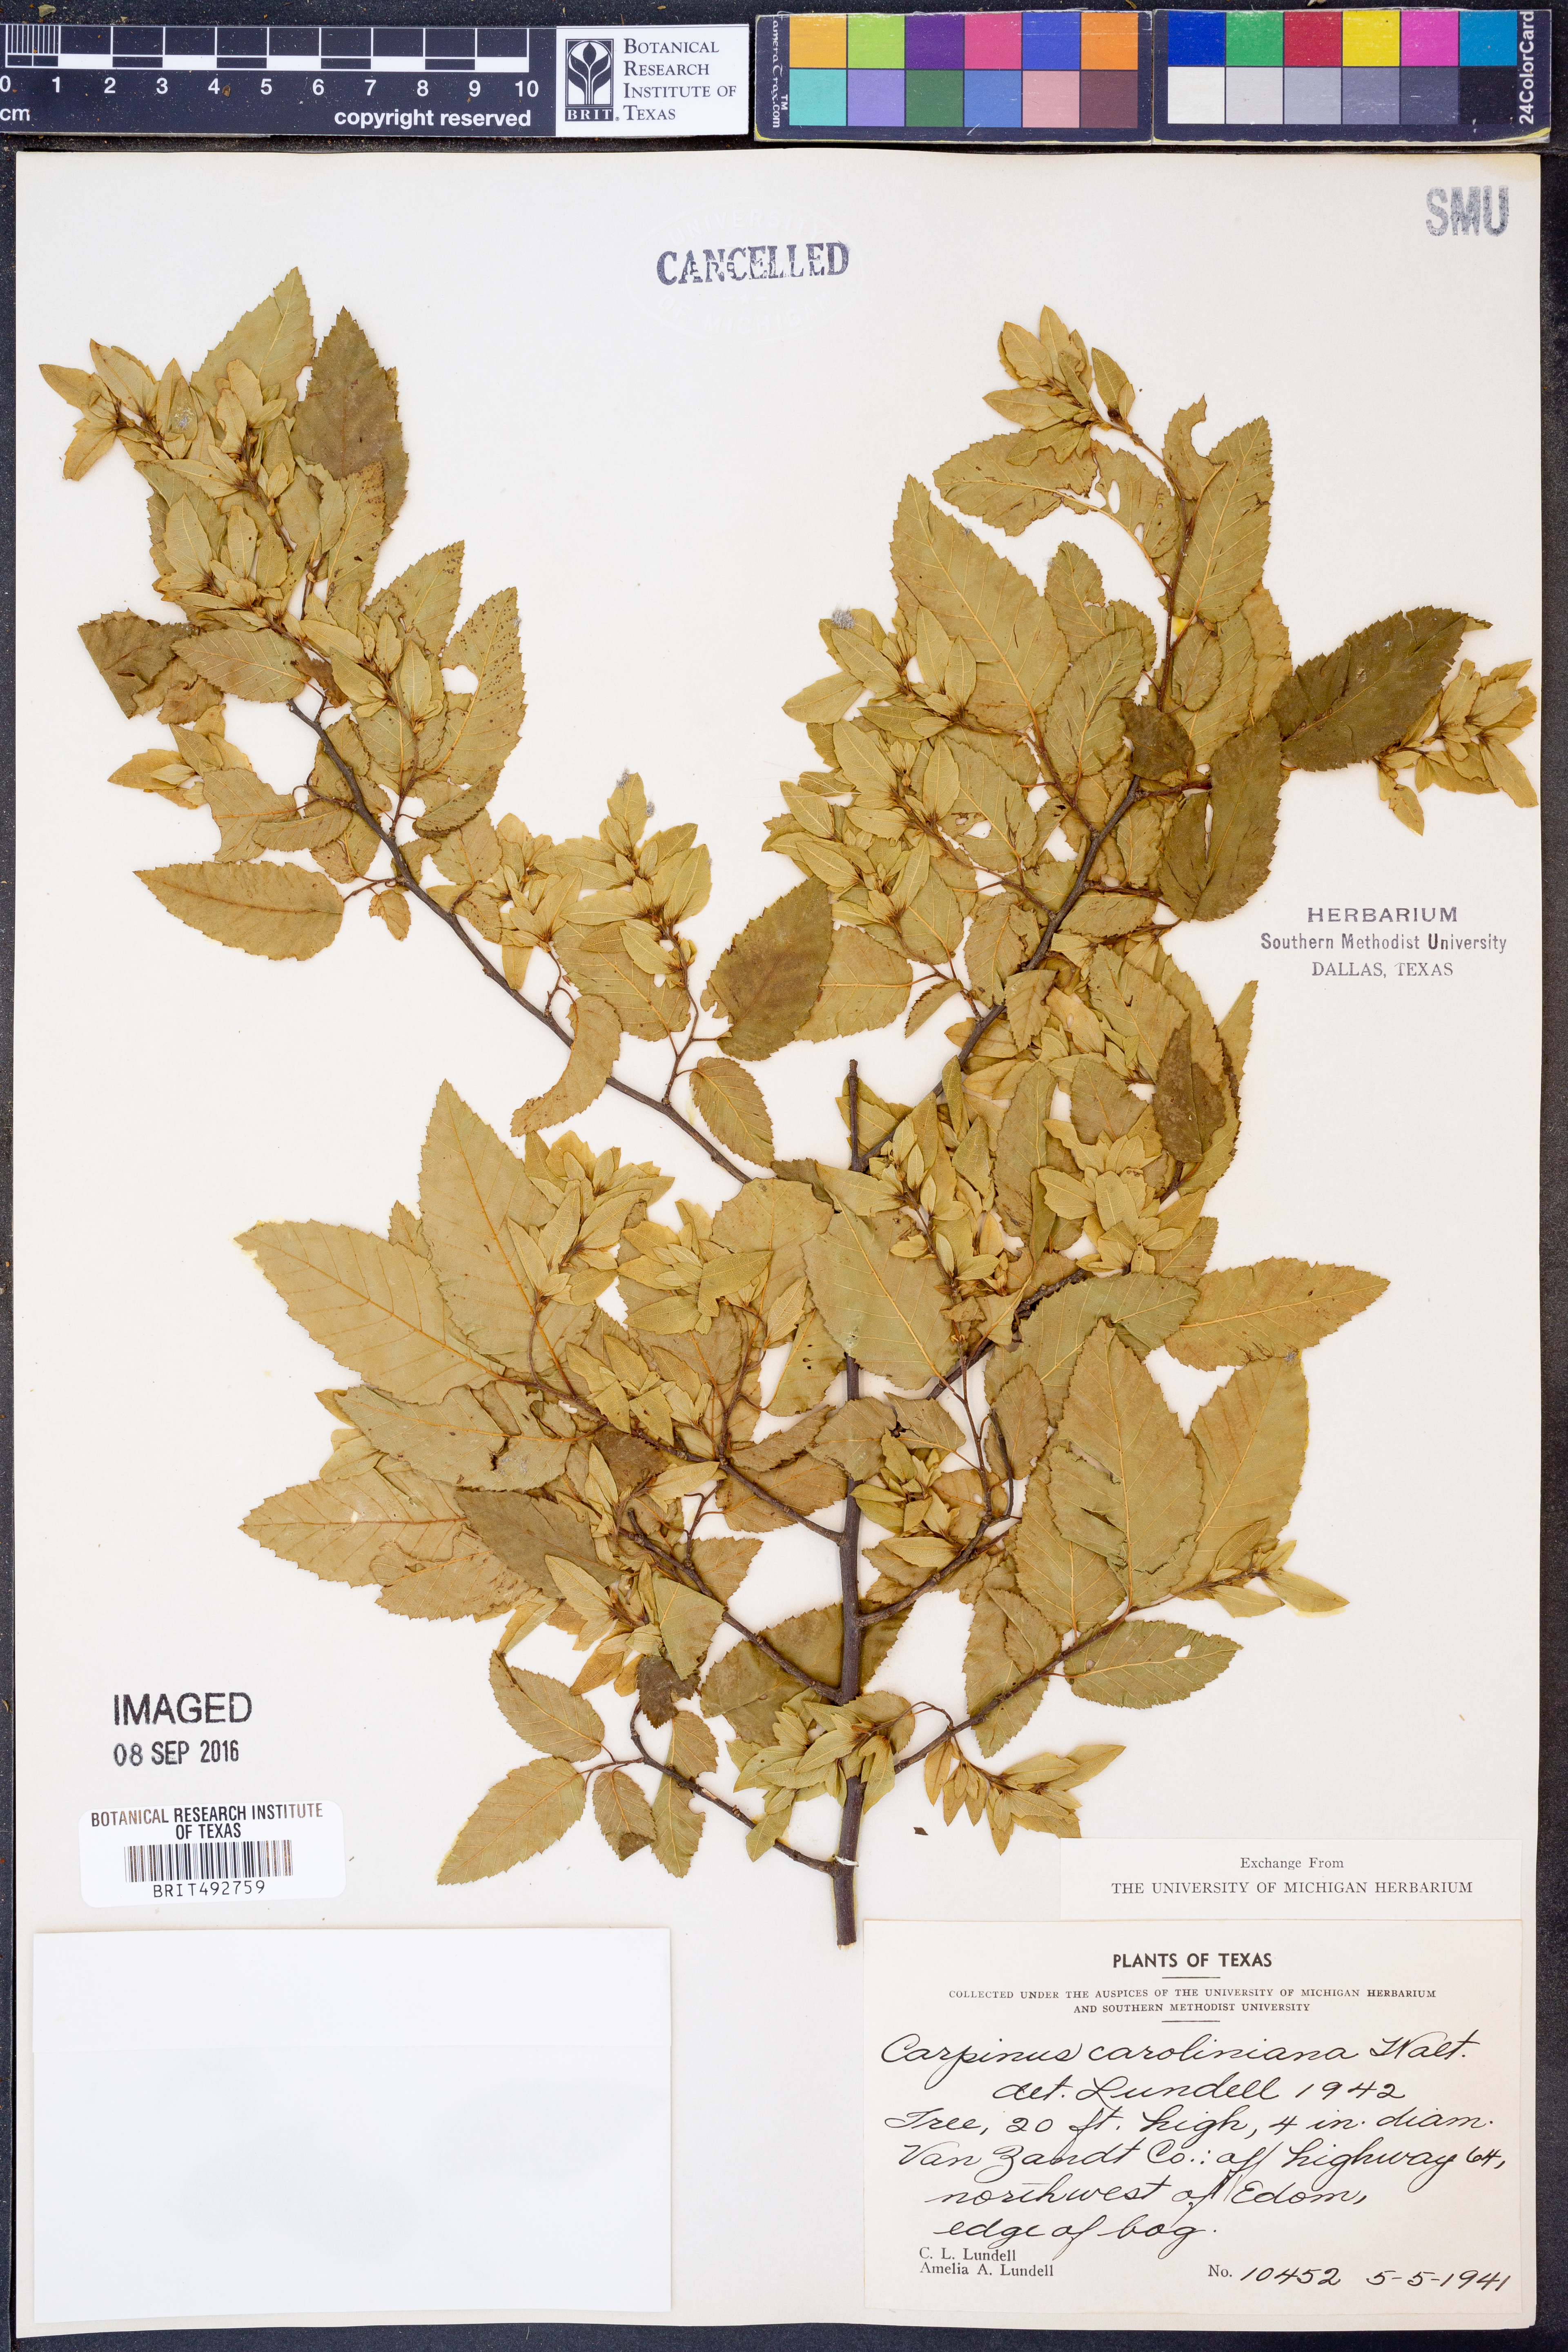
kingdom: Plantae
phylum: Tracheophyta
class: Magnoliopsida
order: Fagales
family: Betulaceae
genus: Carpinus
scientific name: Carpinus caroliniana
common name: American hornbeam
